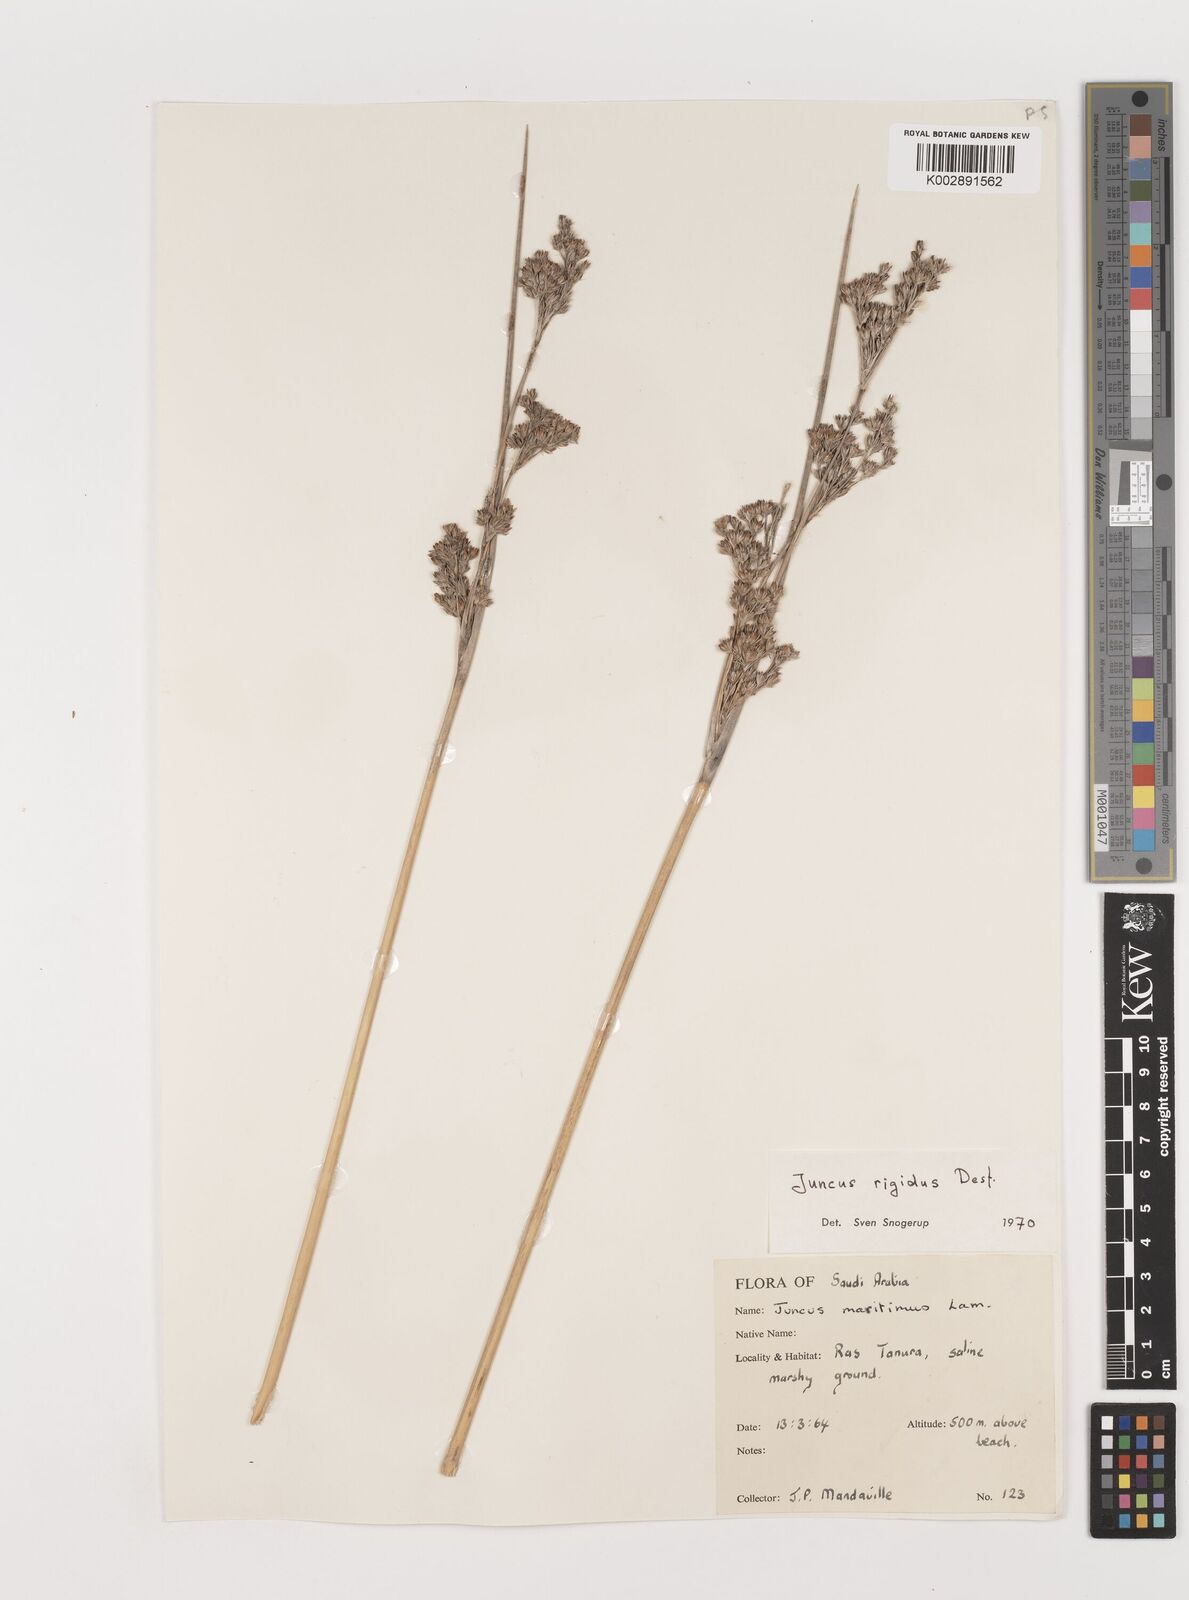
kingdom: Plantae
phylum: Tracheophyta
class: Liliopsida
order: Poales
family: Juncaceae
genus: Juncus
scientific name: Juncus rigidus
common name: Hard sea rush
